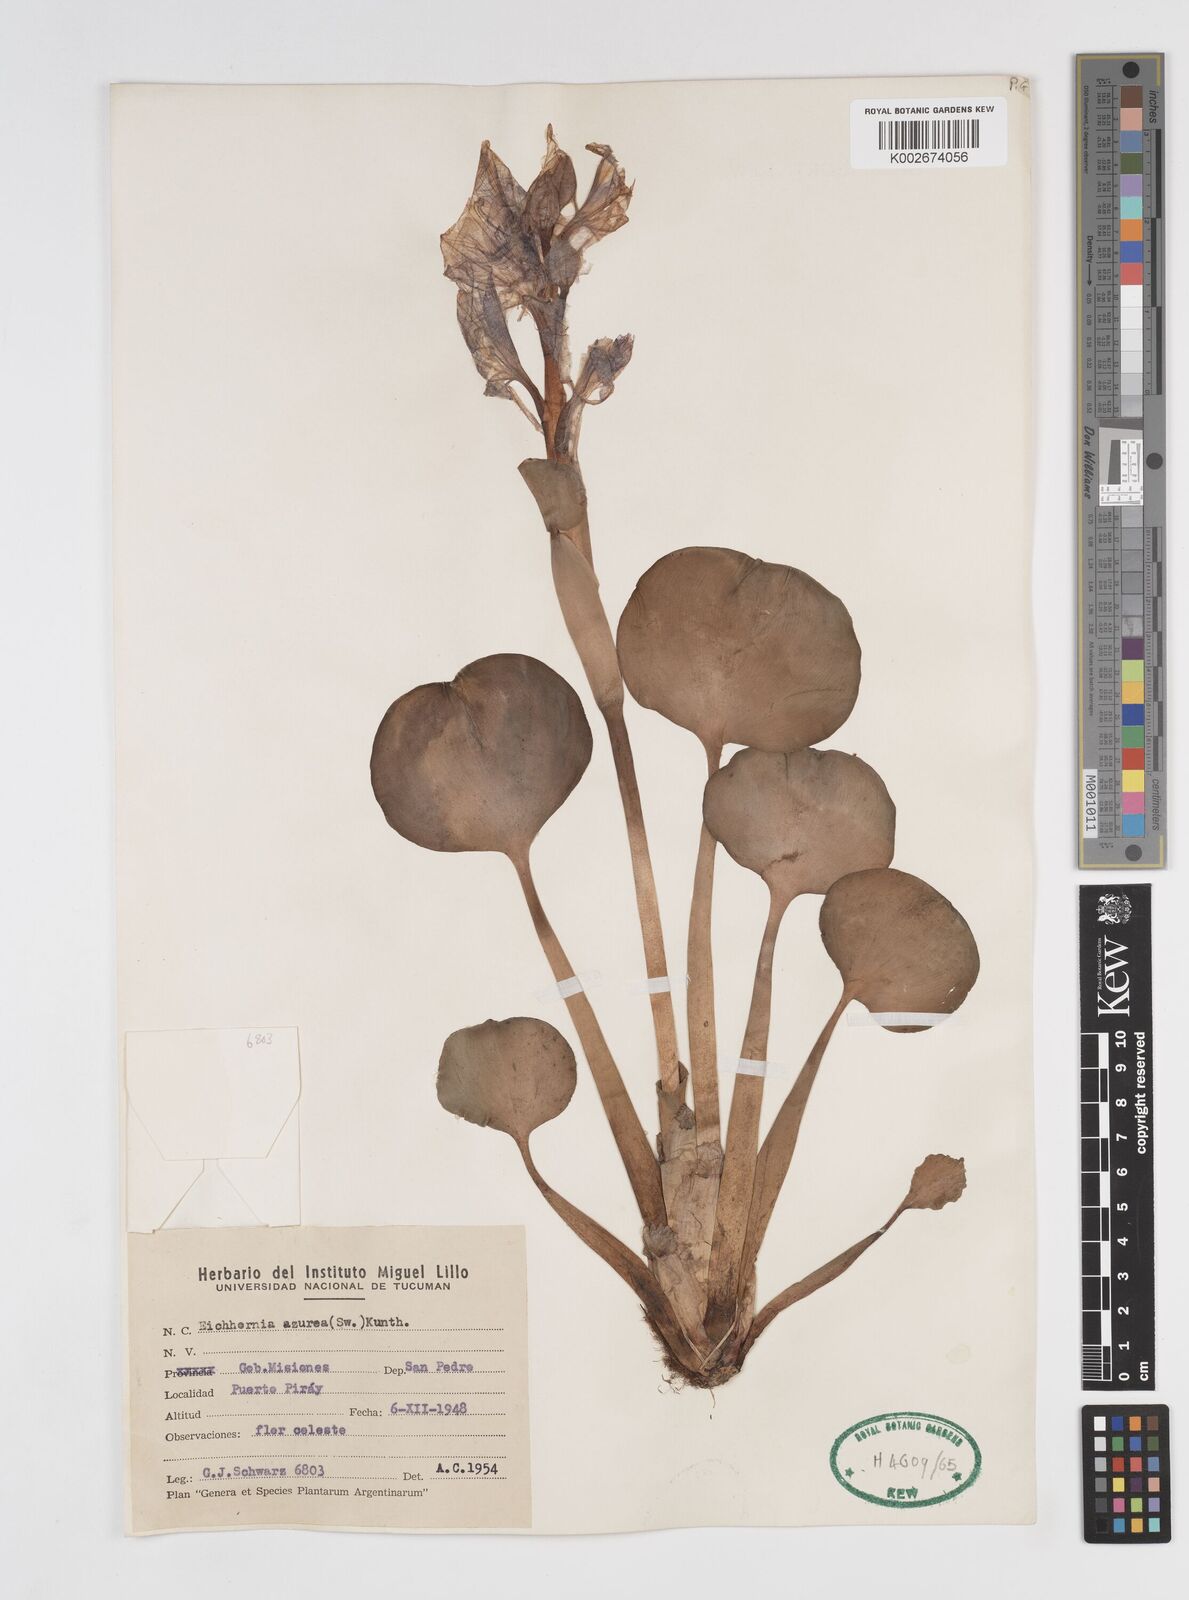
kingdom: Plantae
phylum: Tracheophyta
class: Liliopsida
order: Commelinales
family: Pontederiaceae
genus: Pontederia
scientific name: Pontederia crassipes
